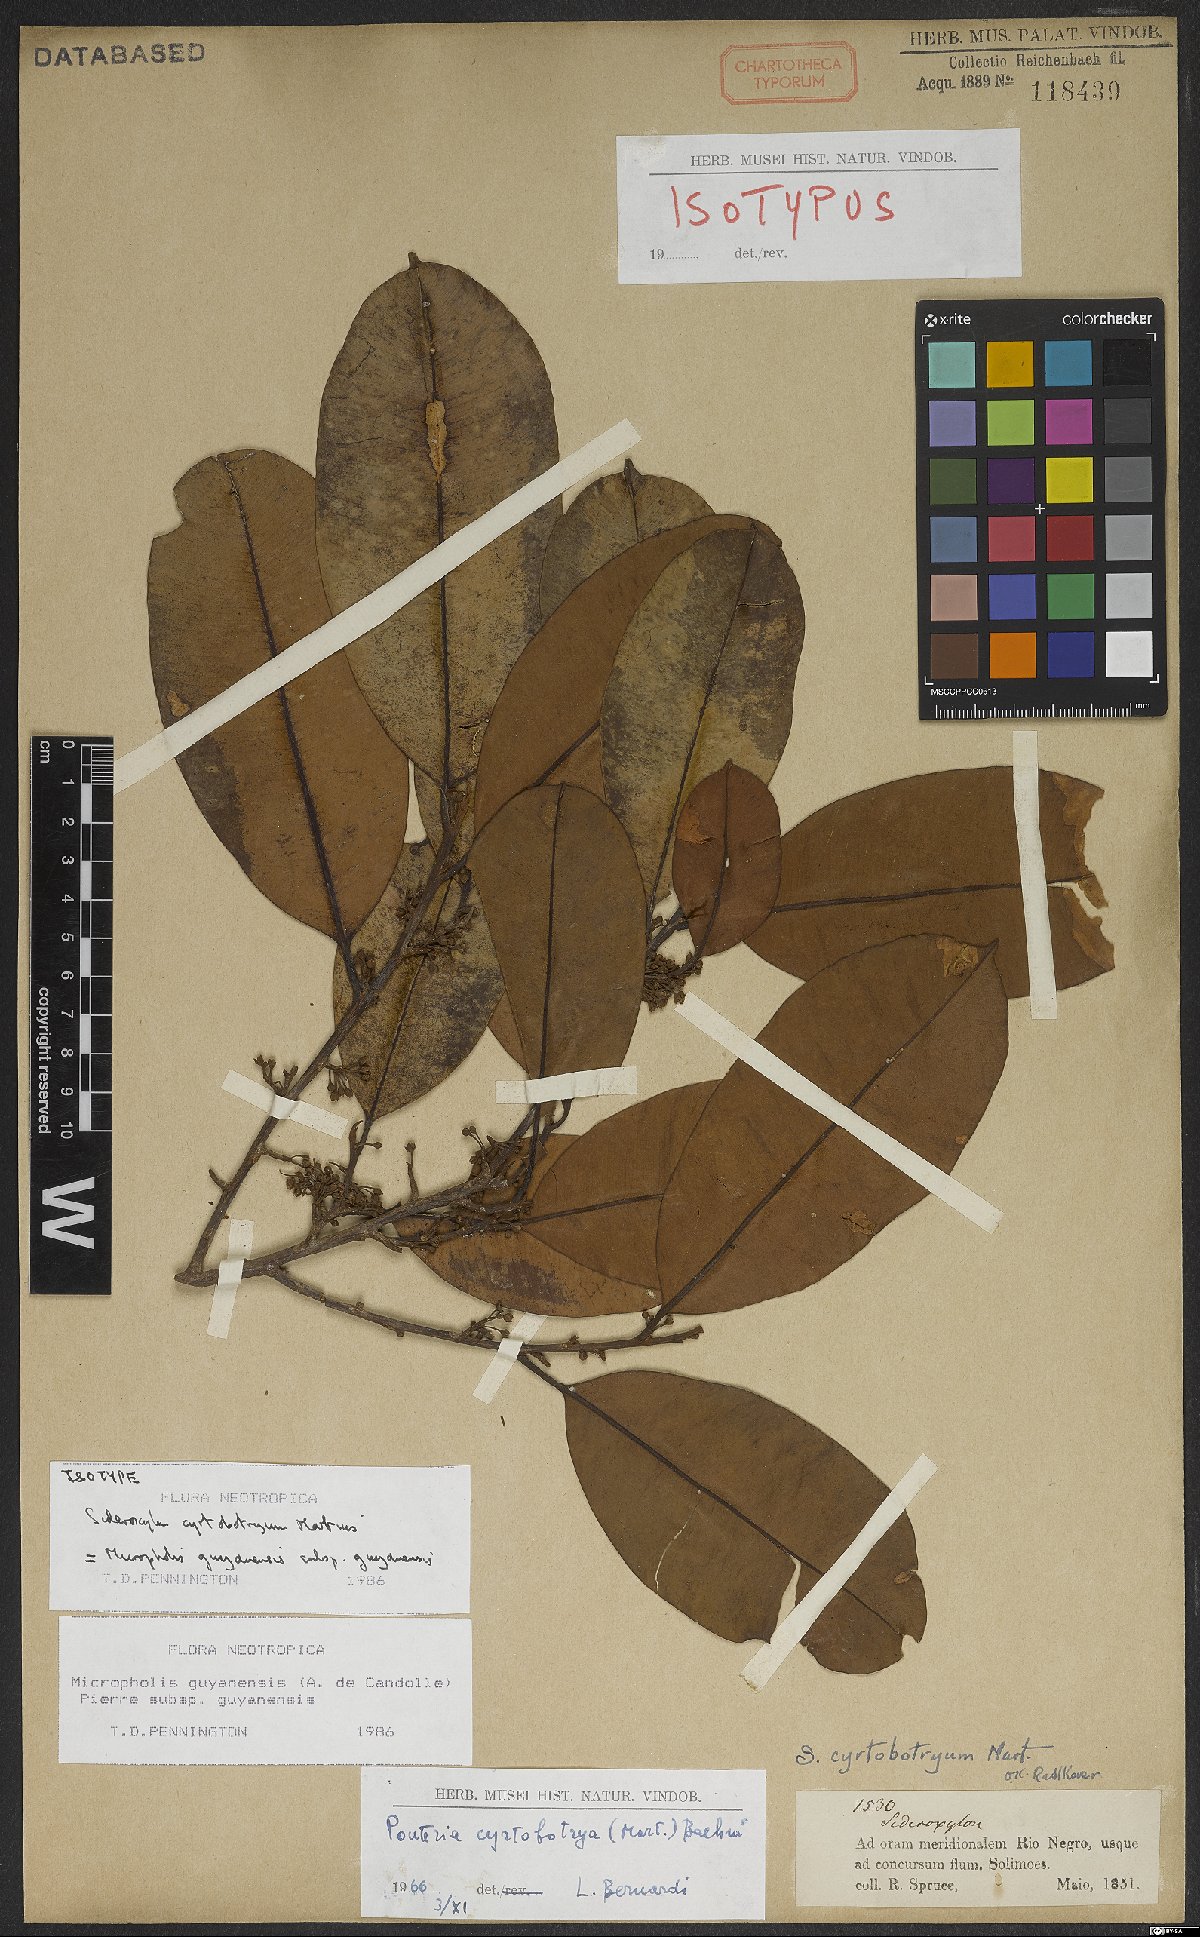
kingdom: Plantae
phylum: Tracheophyta
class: Magnoliopsida
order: Ericales
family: Sapotaceae
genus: Micropholis
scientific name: Micropholis guyanensis
